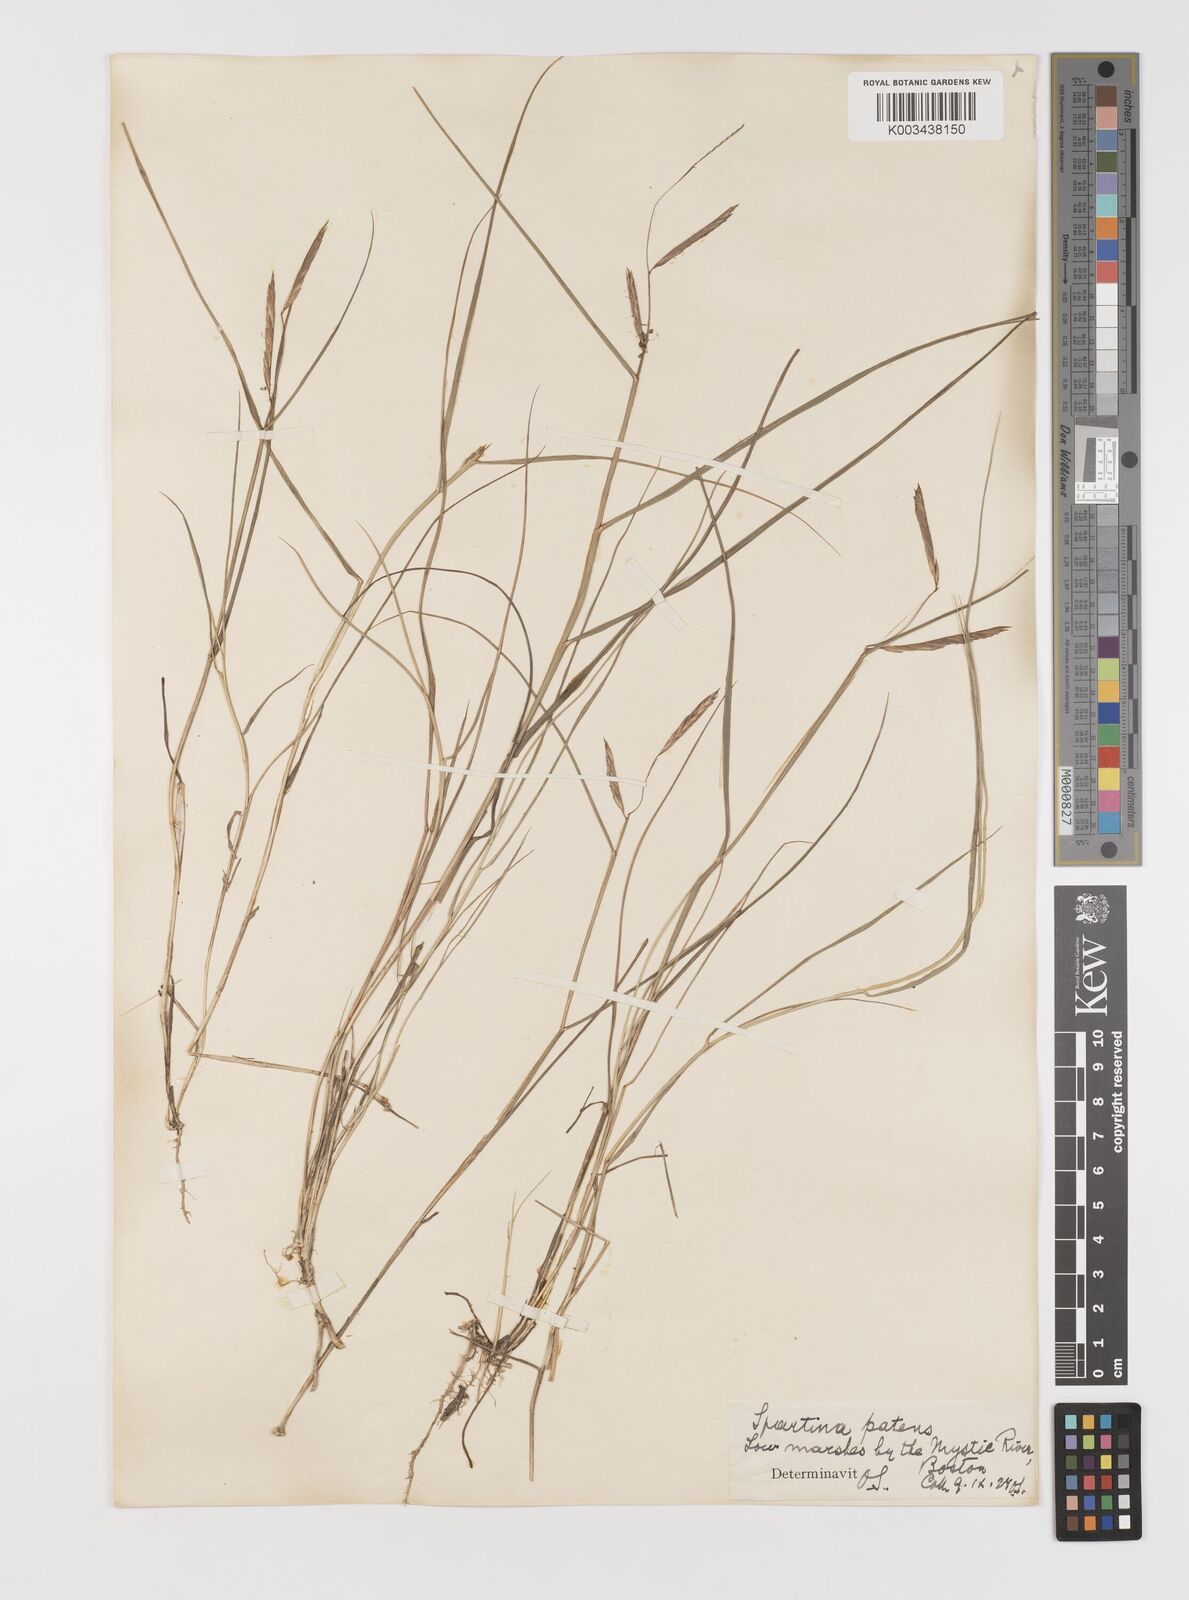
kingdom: Plantae
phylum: Tracheophyta
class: Liliopsida
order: Poales
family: Poaceae
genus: Sporobolus
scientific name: Sporobolus pumilus
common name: Highwater grass
